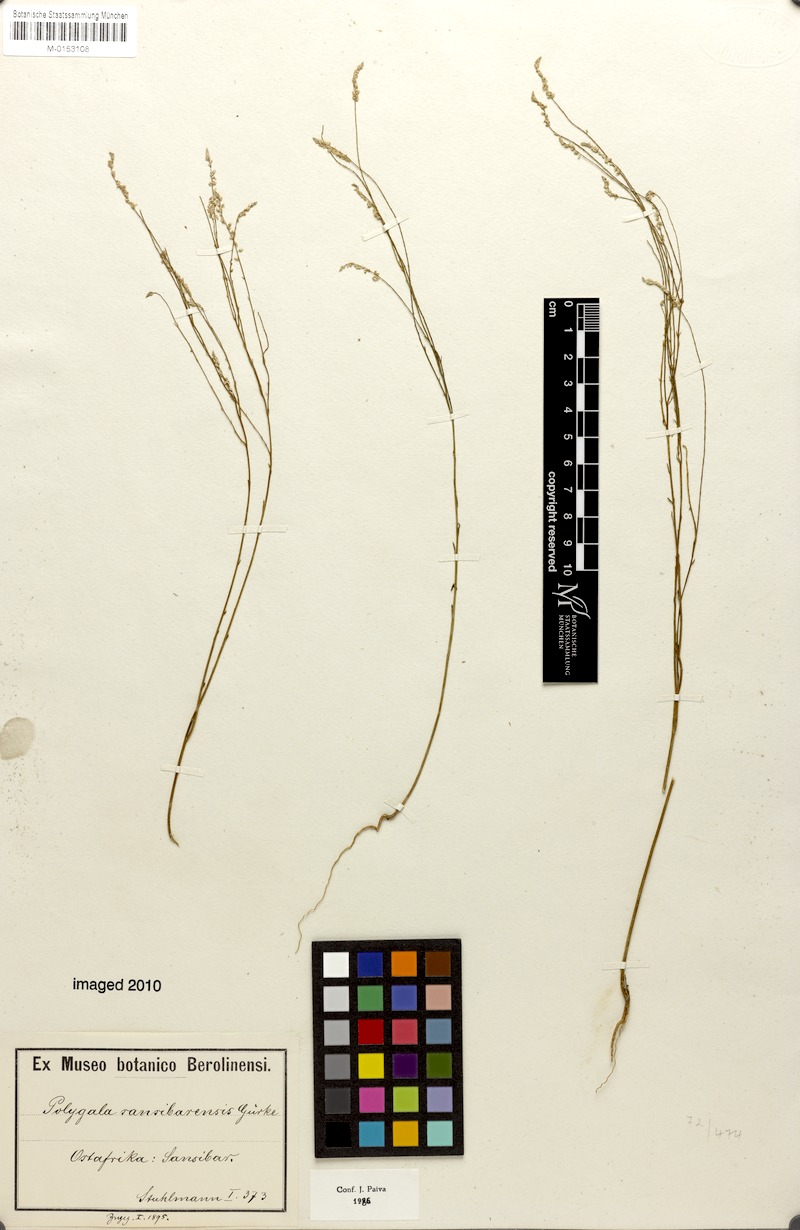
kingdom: Plantae
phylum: Tracheophyta
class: Magnoliopsida
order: Fabales
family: Polygalaceae
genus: Polygala
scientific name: Polygala sansibarensis
